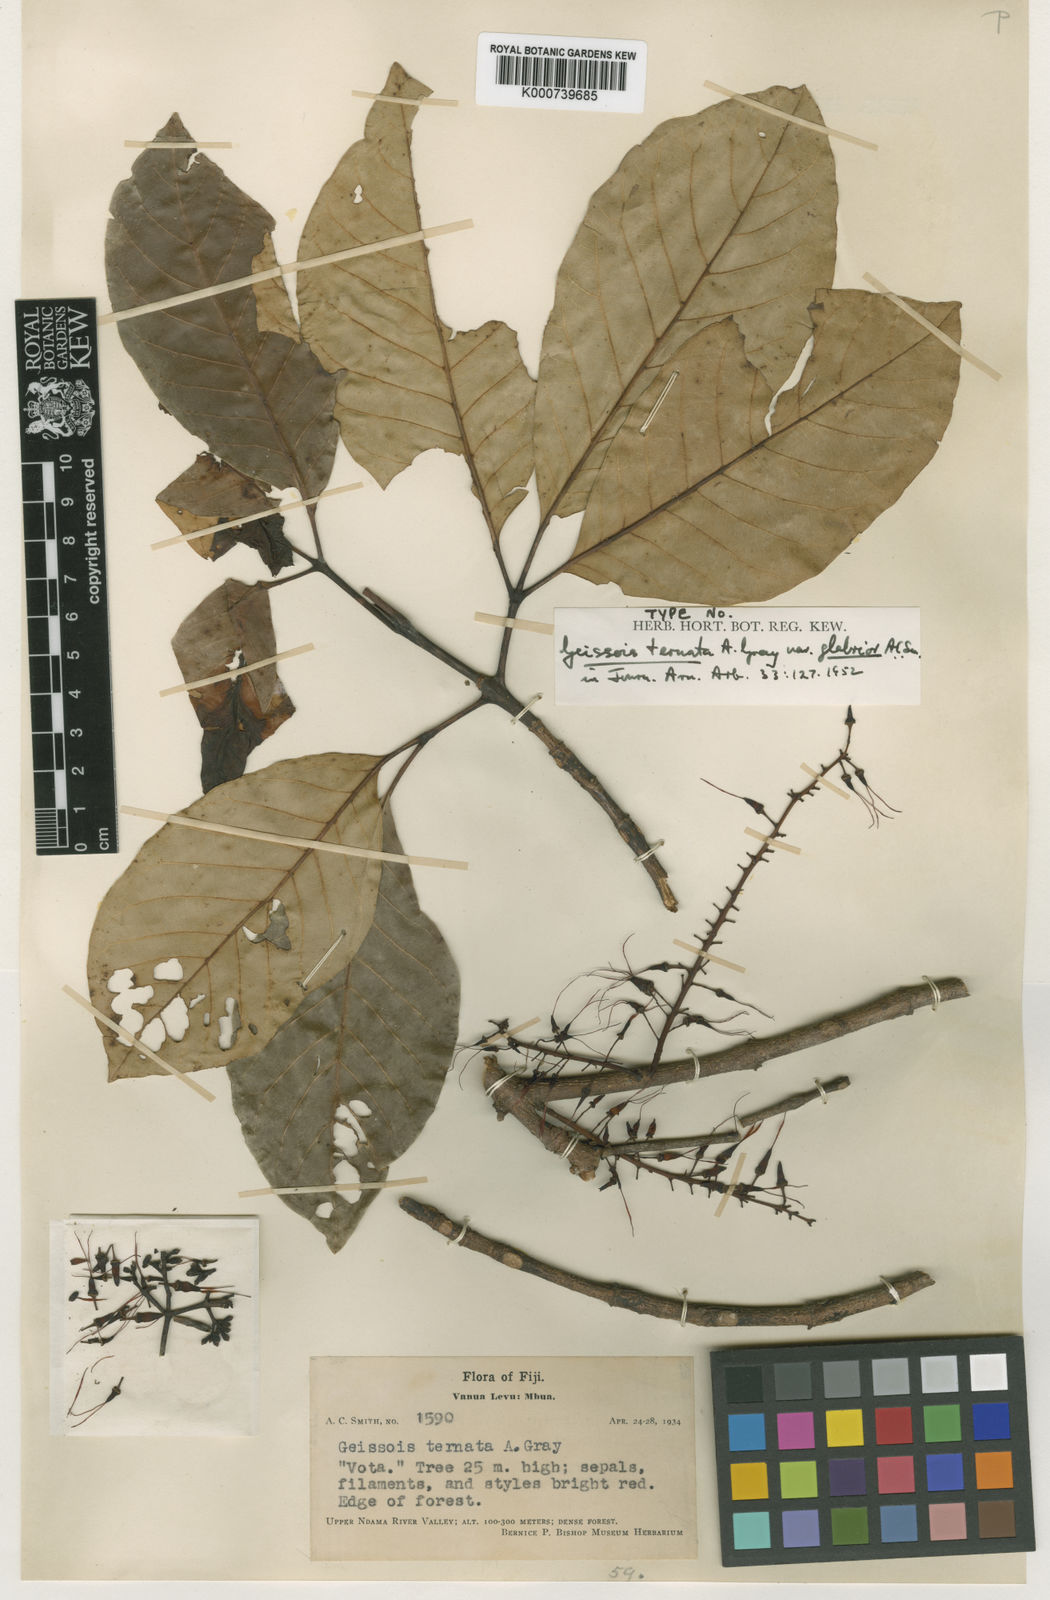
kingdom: Plantae
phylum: Tracheophyta
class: Magnoliopsida
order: Oxalidales
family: Cunoniaceae
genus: Geissois
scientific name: Geissois ternata
